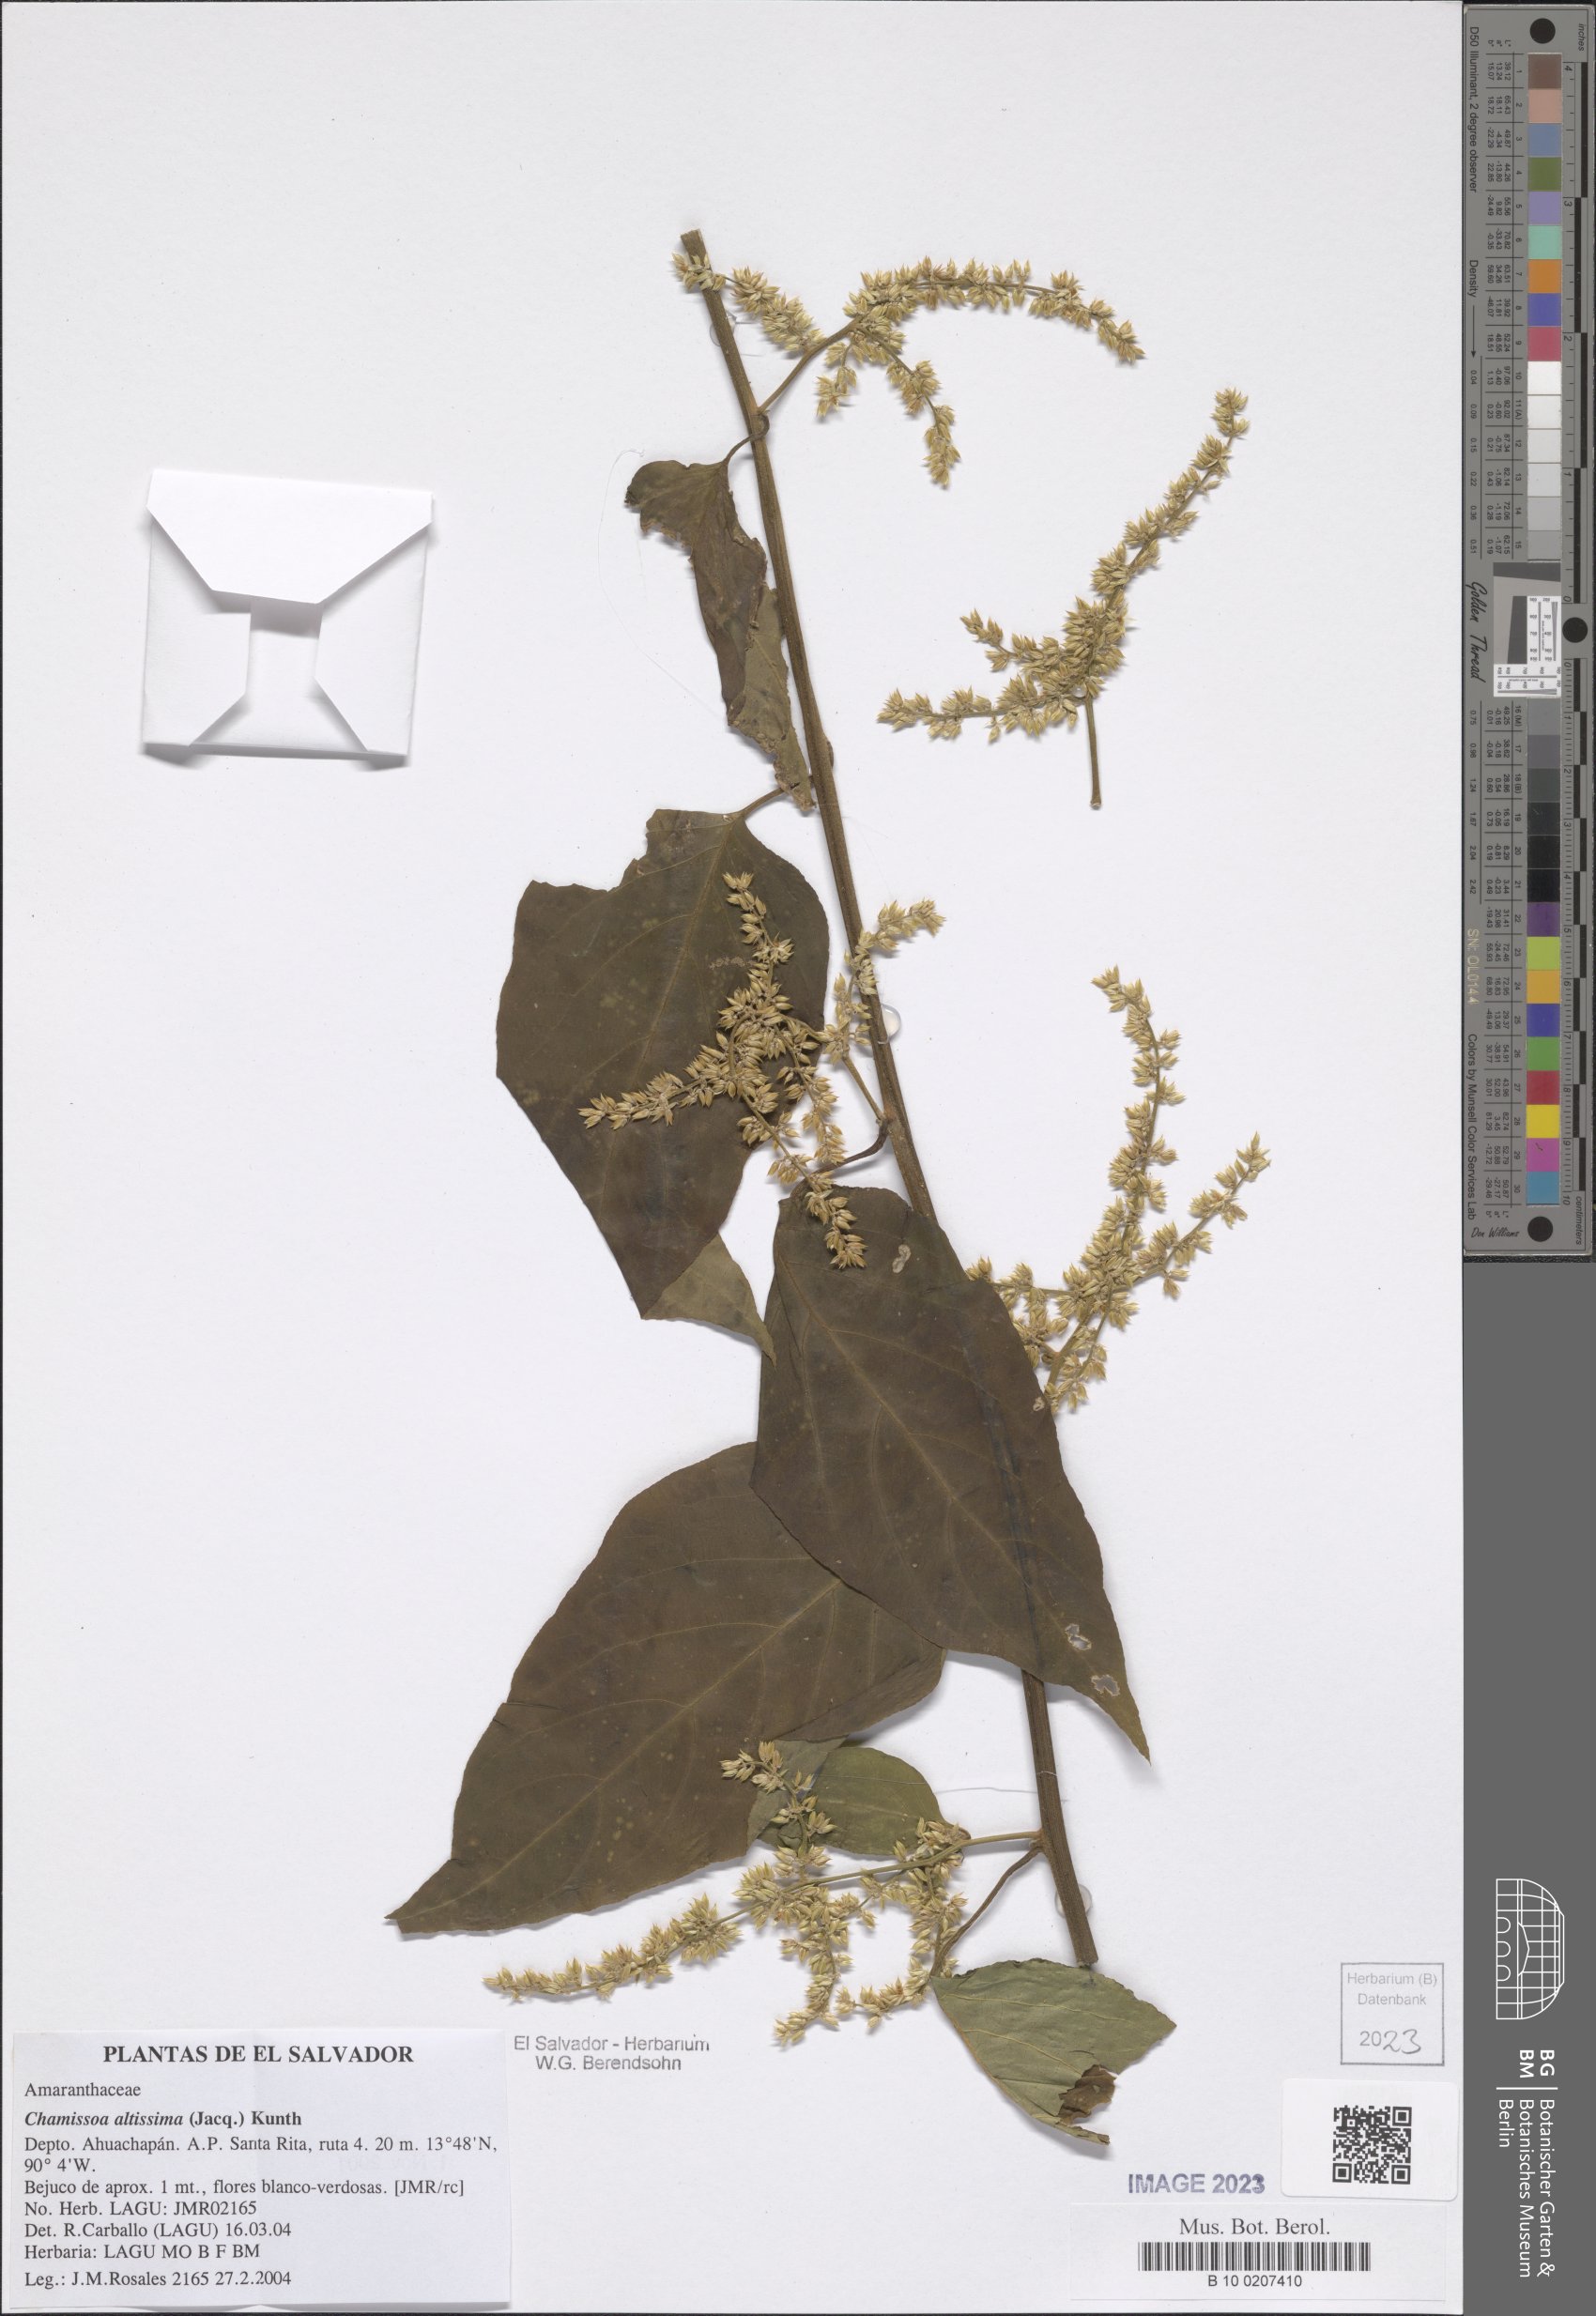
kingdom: Plantae
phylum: Tracheophyta
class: Magnoliopsida
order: Caryophyllales
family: Amaranthaceae
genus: Chamissoa
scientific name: Chamissoa altissima
